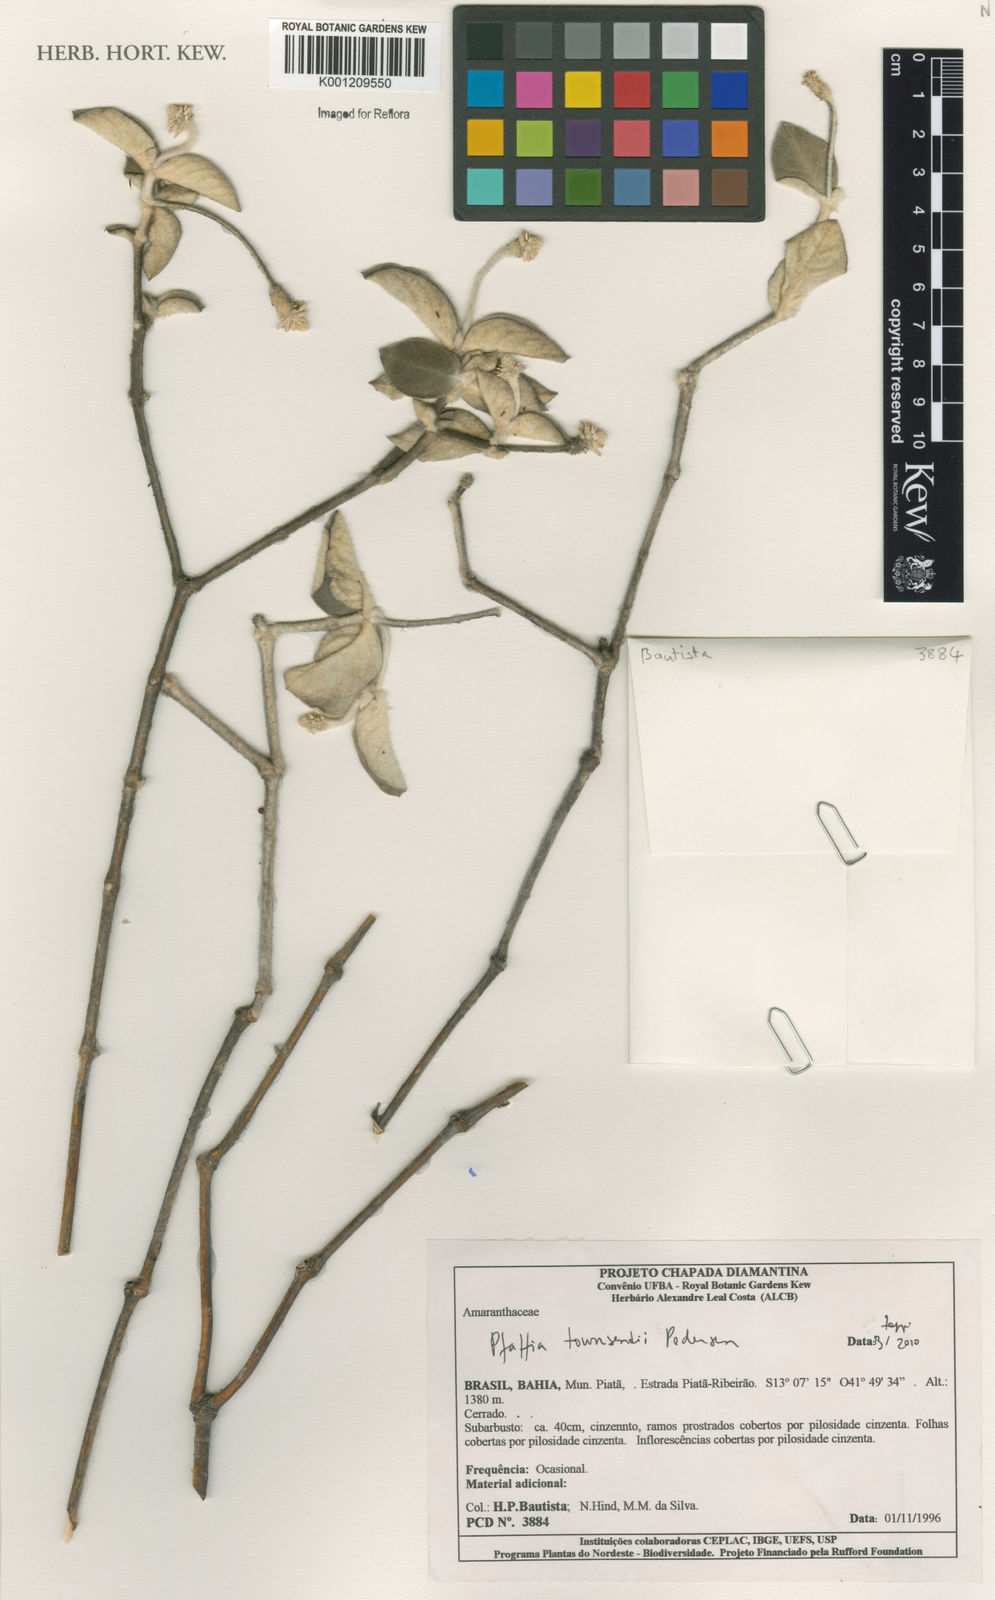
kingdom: Plantae
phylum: Tracheophyta
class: Magnoliopsida
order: Caryophyllales
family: Amaranthaceae
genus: Pfaffia
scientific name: Pfaffia townsendii
